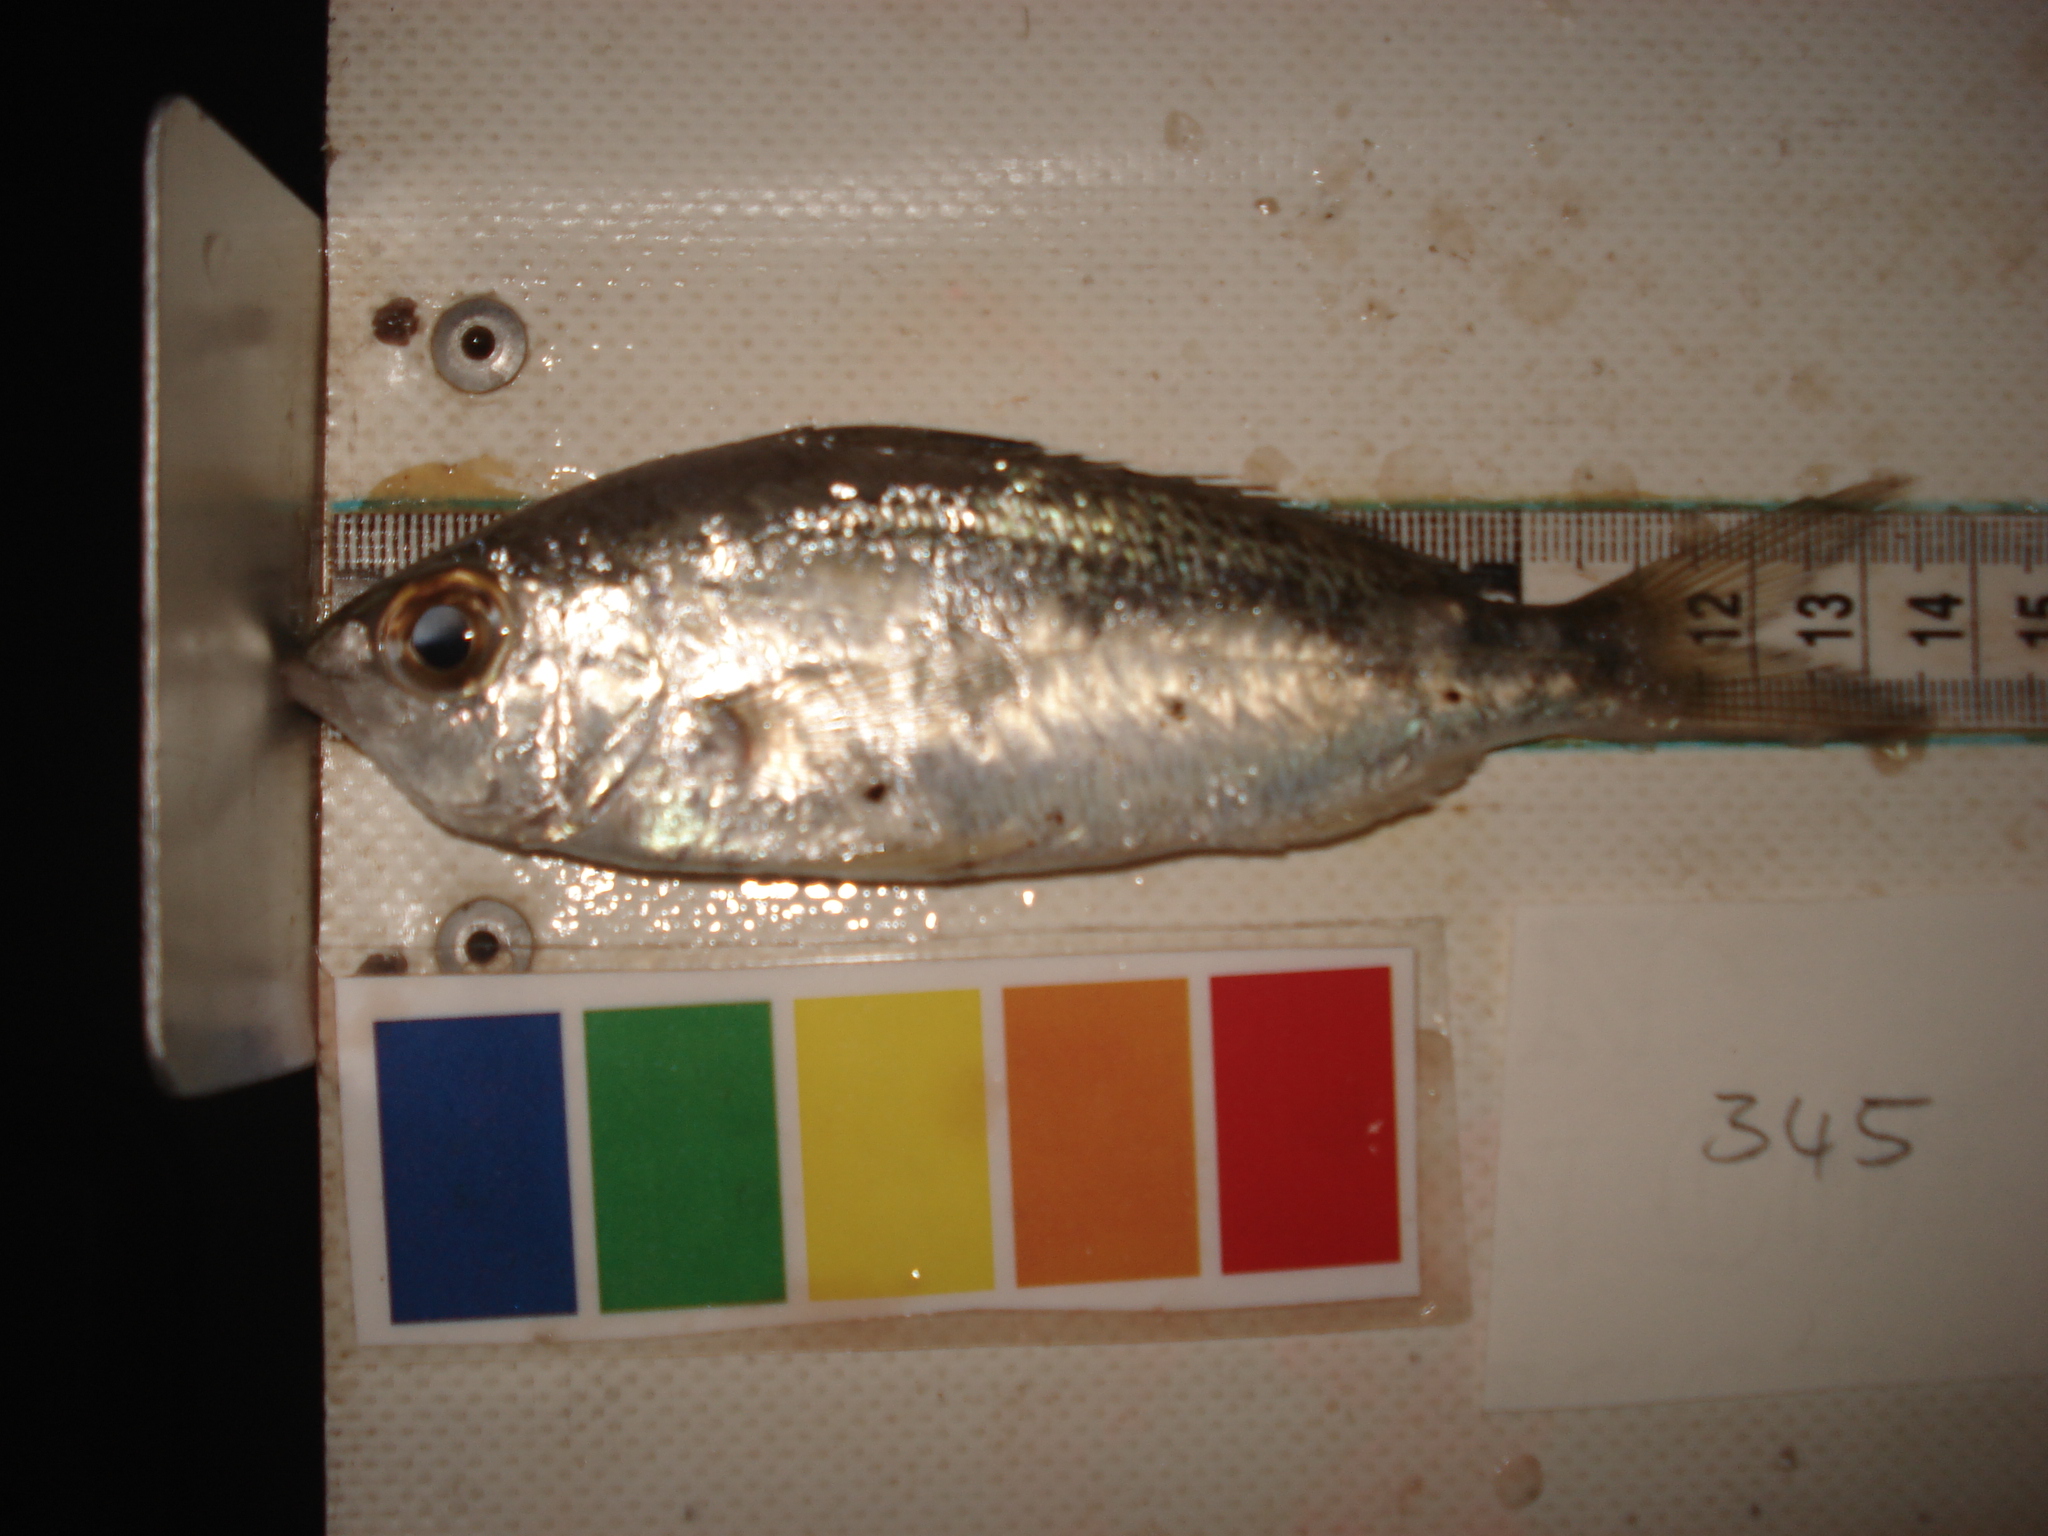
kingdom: Animalia
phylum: Chordata
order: Perciformes
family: Gerreidae
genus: Gerres
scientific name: Gerres oyena
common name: Common silver-biddy
